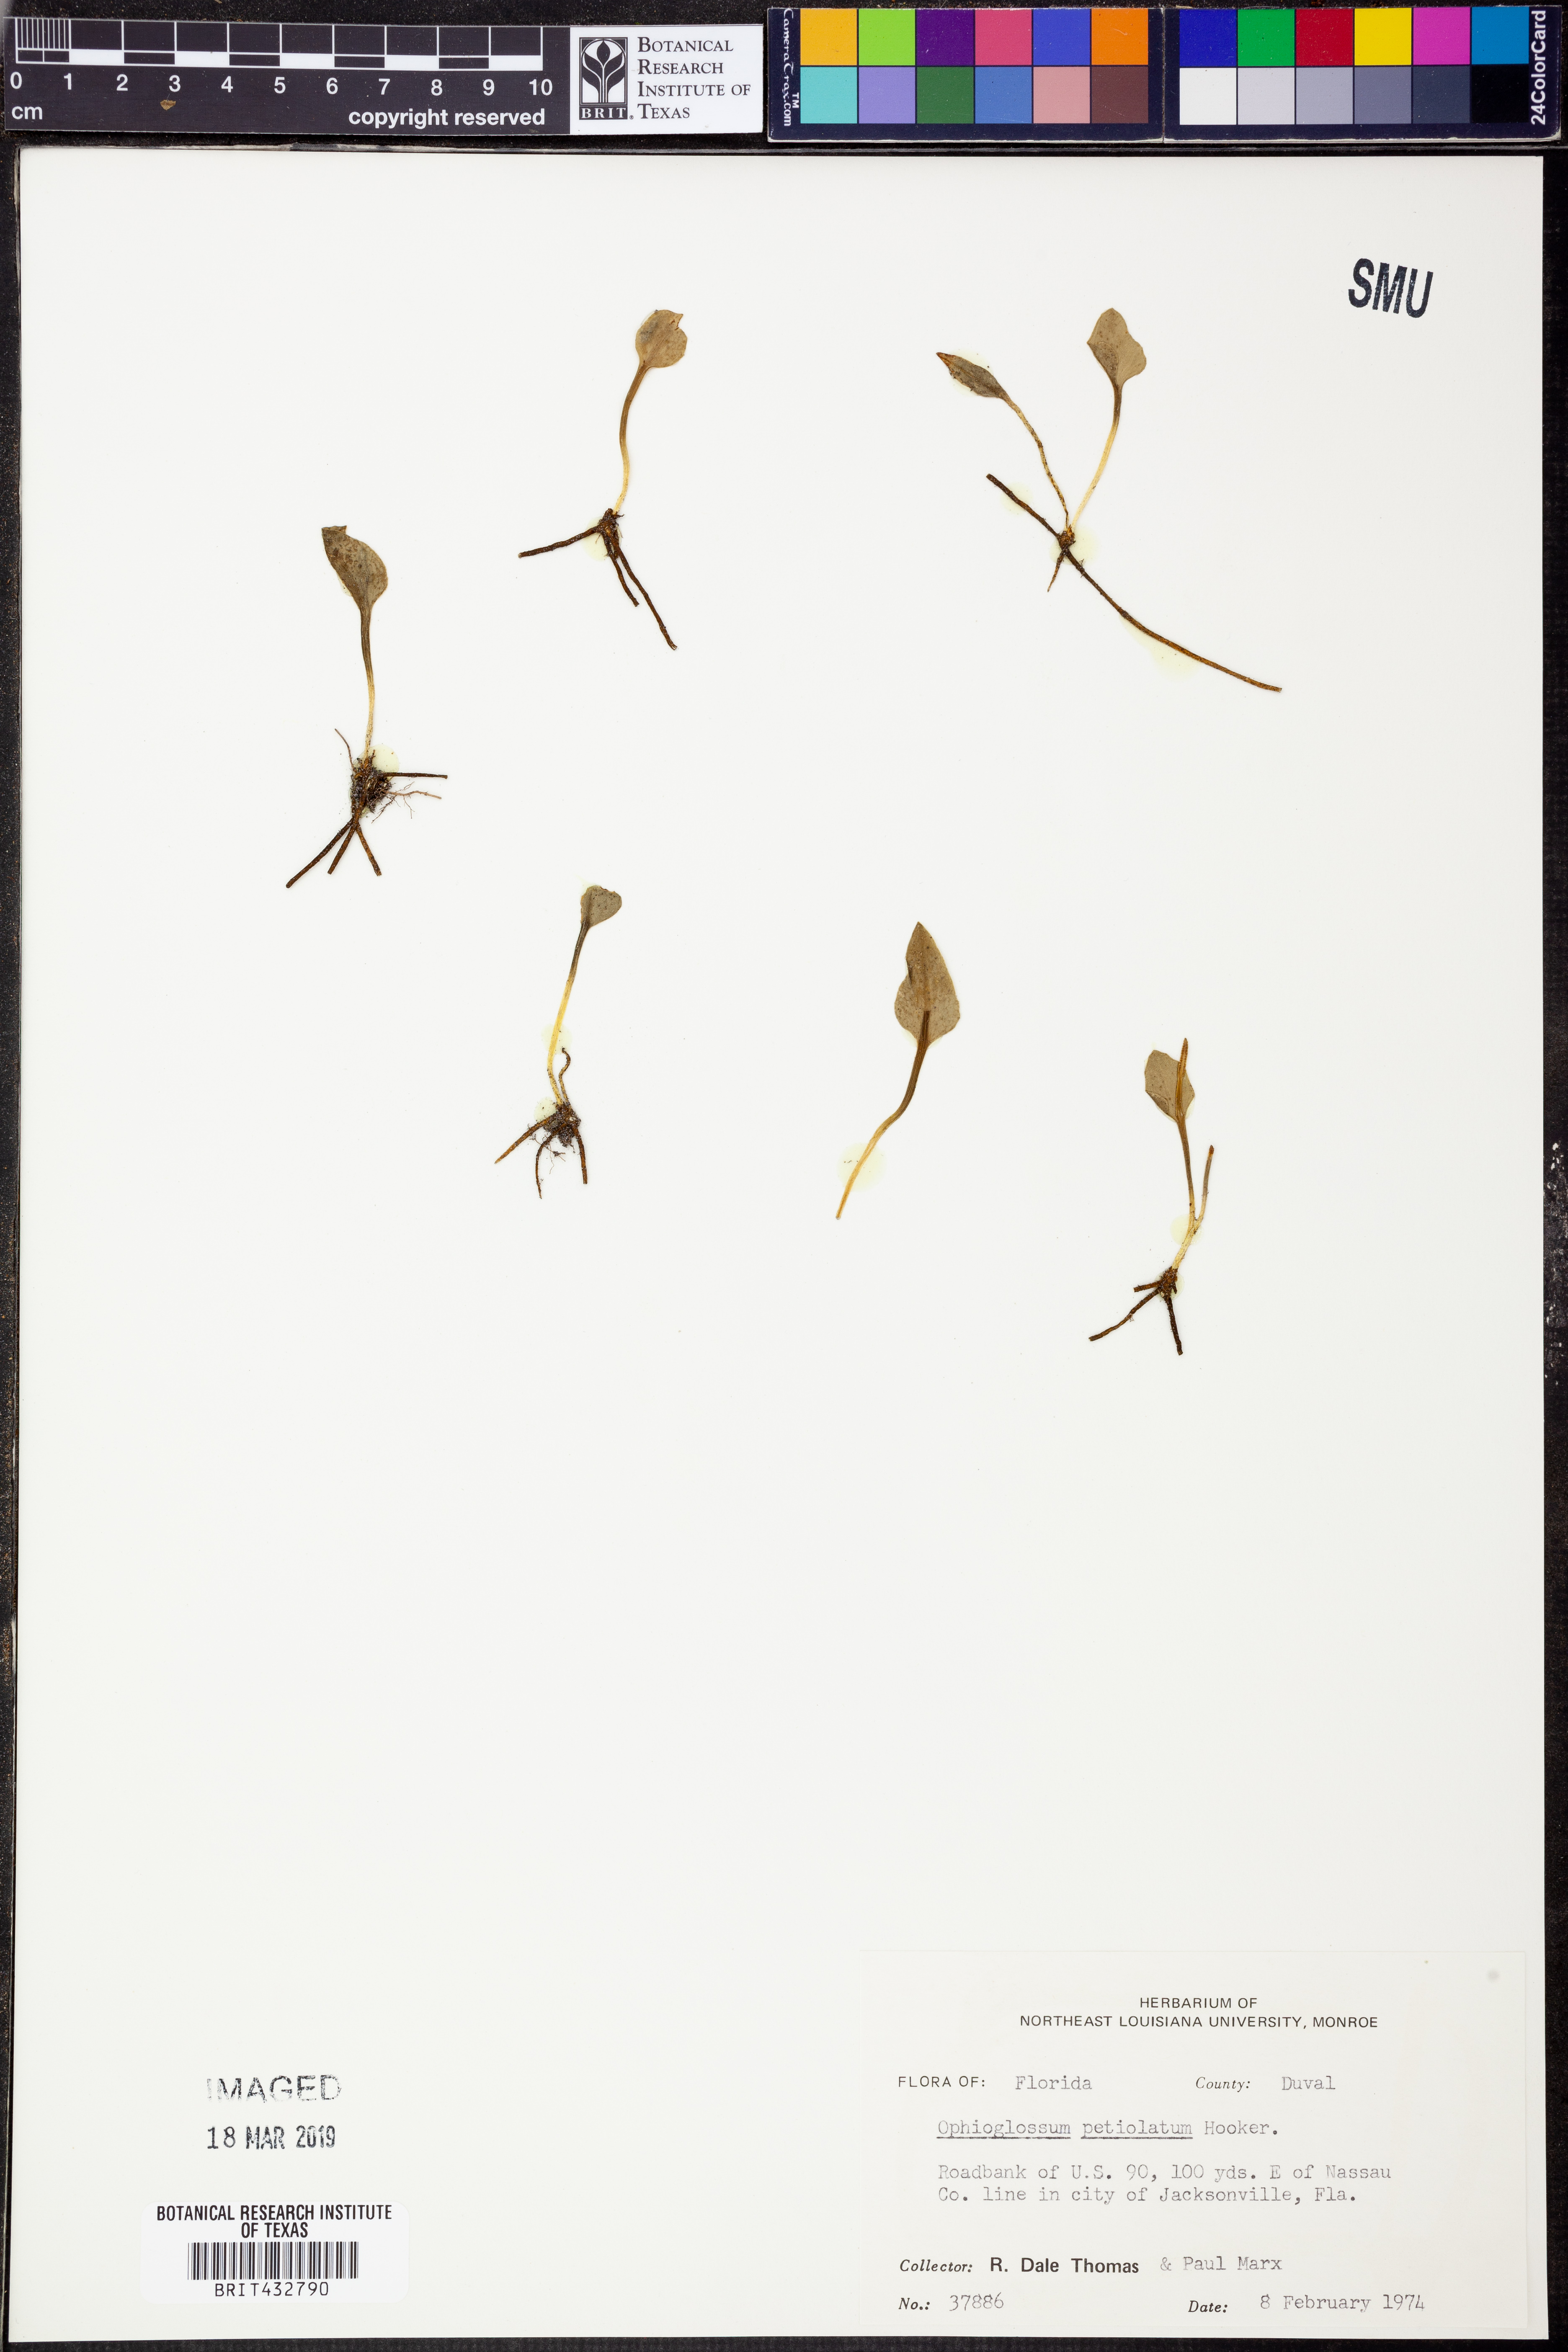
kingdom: Plantae
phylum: Tracheophyta
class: Polypodiopsida
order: Ophioglossales
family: Ophioglossaceae
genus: Ophioglossum
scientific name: Ophioglossum petiolatum
